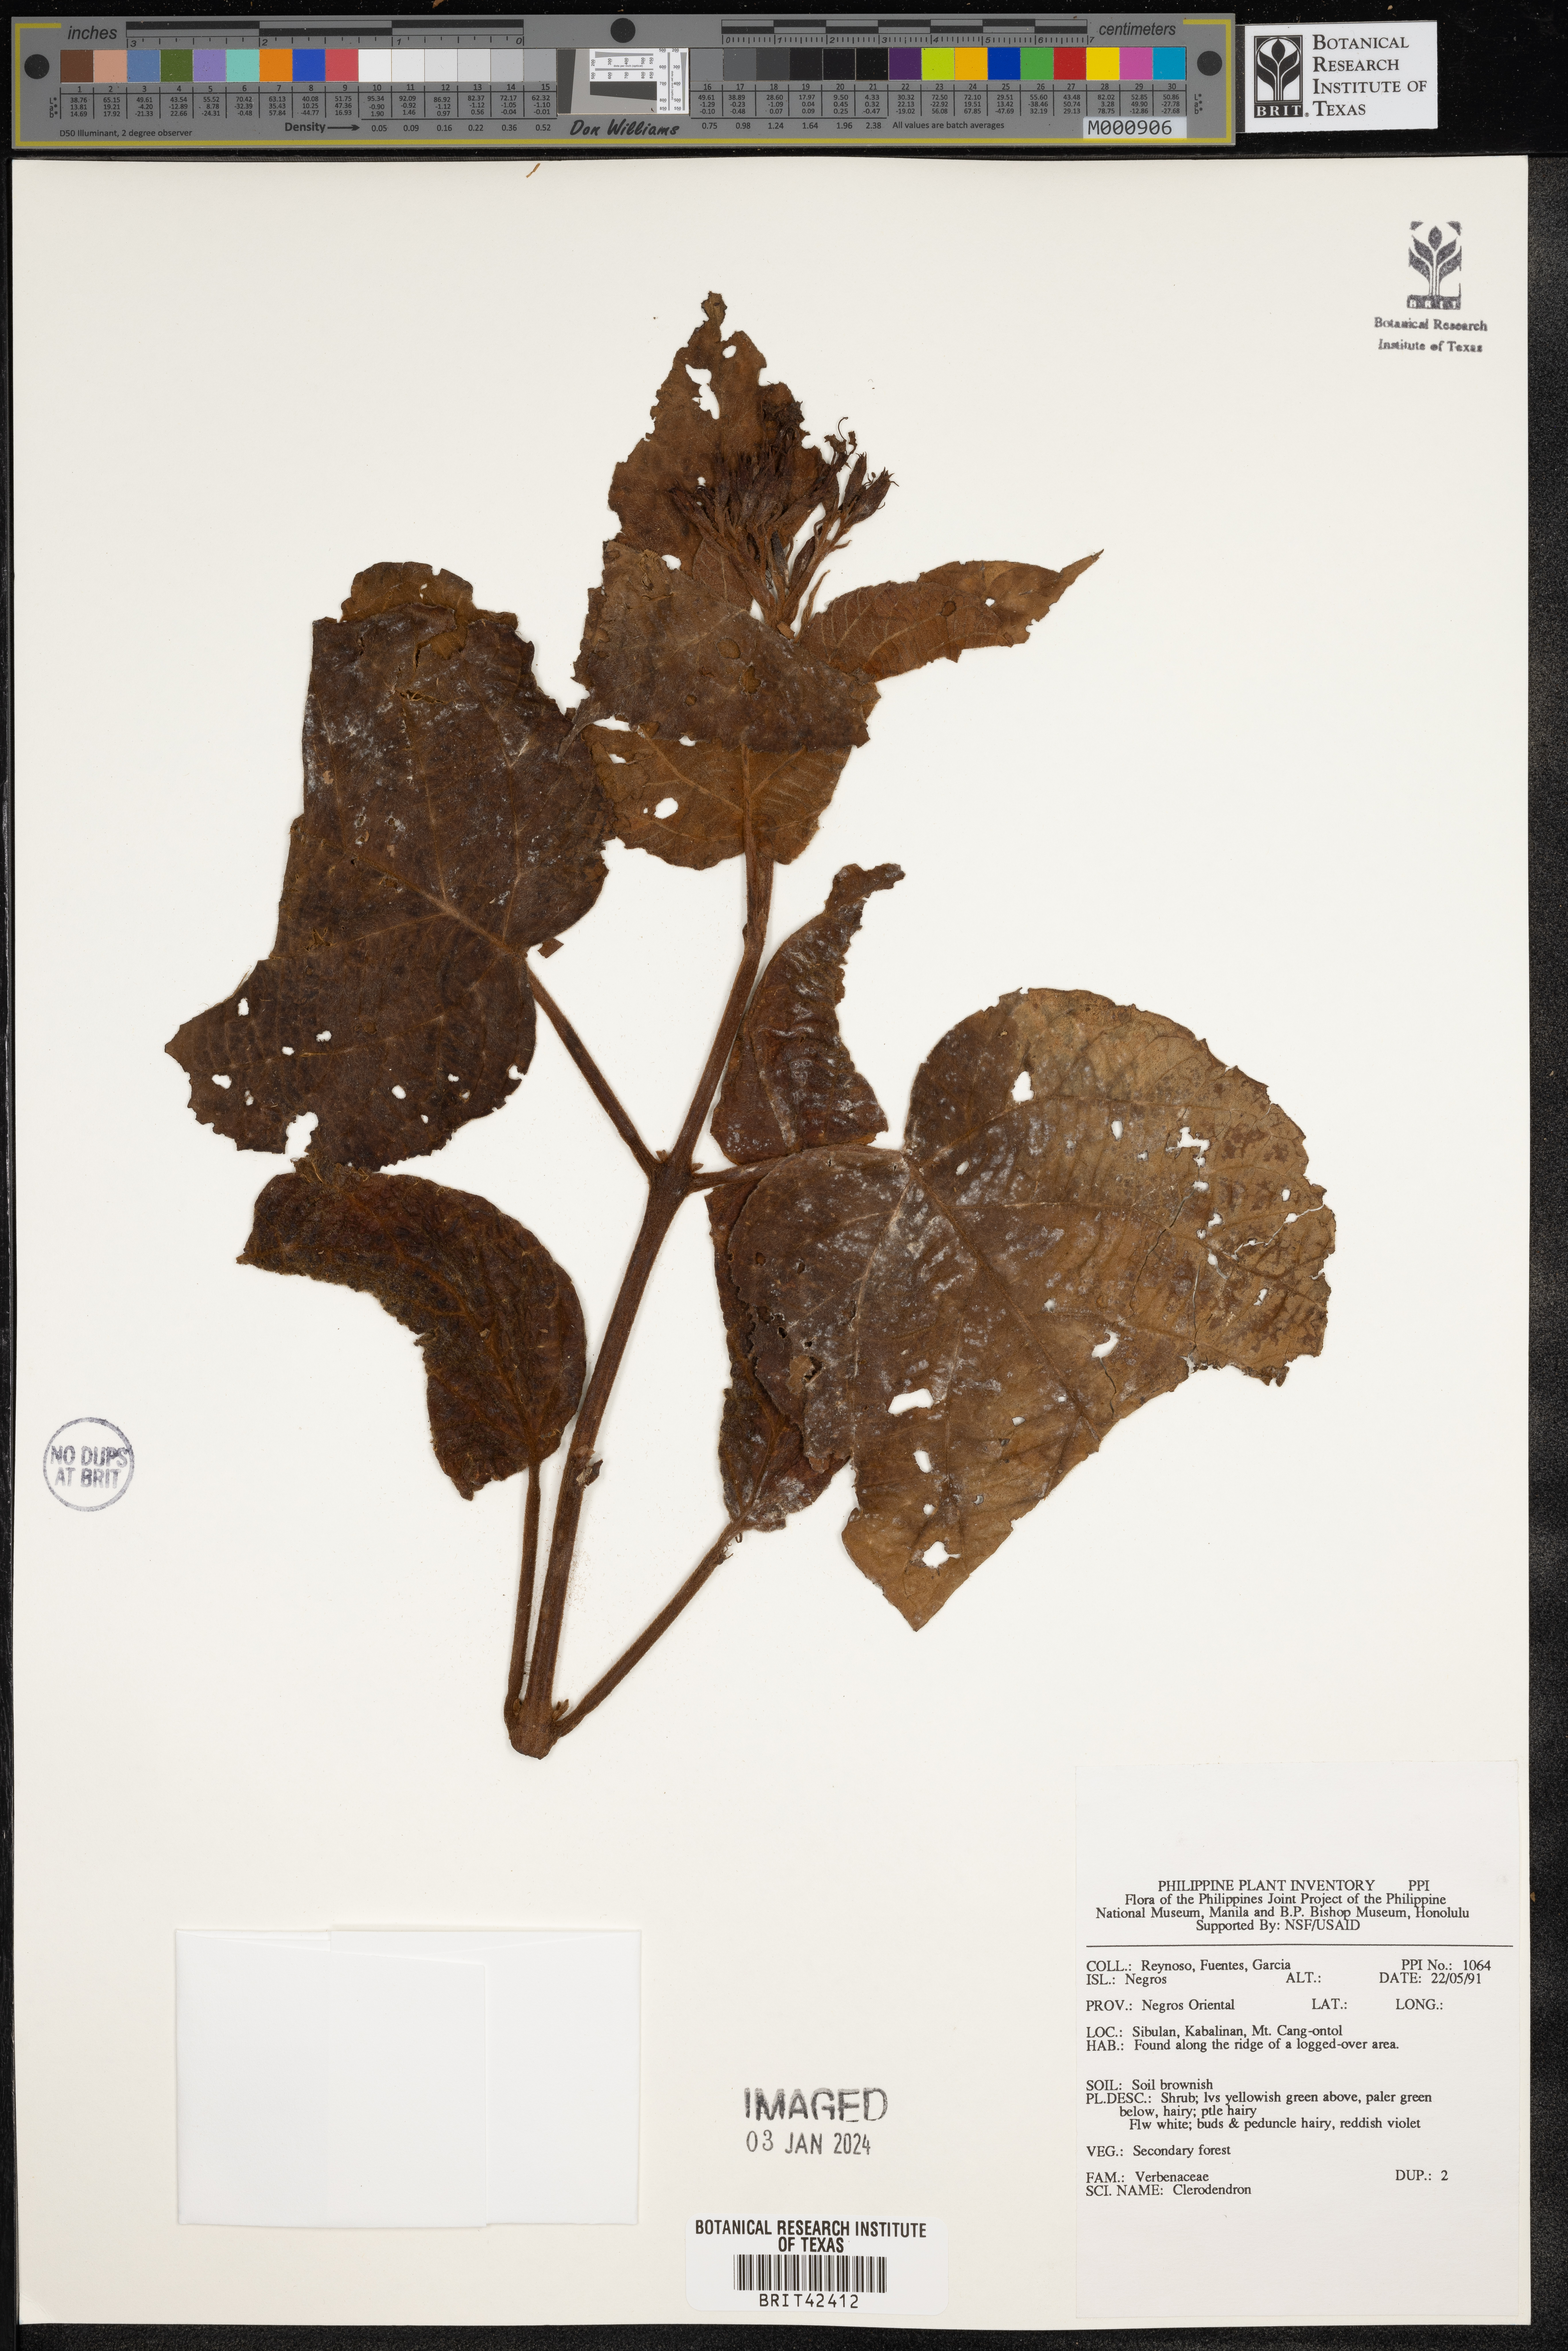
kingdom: Plantae
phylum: Tracheophyta
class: Magnoliopsida
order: Lamiales
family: Lamiaceae
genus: Clerodendrum
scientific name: Clerodendrum
